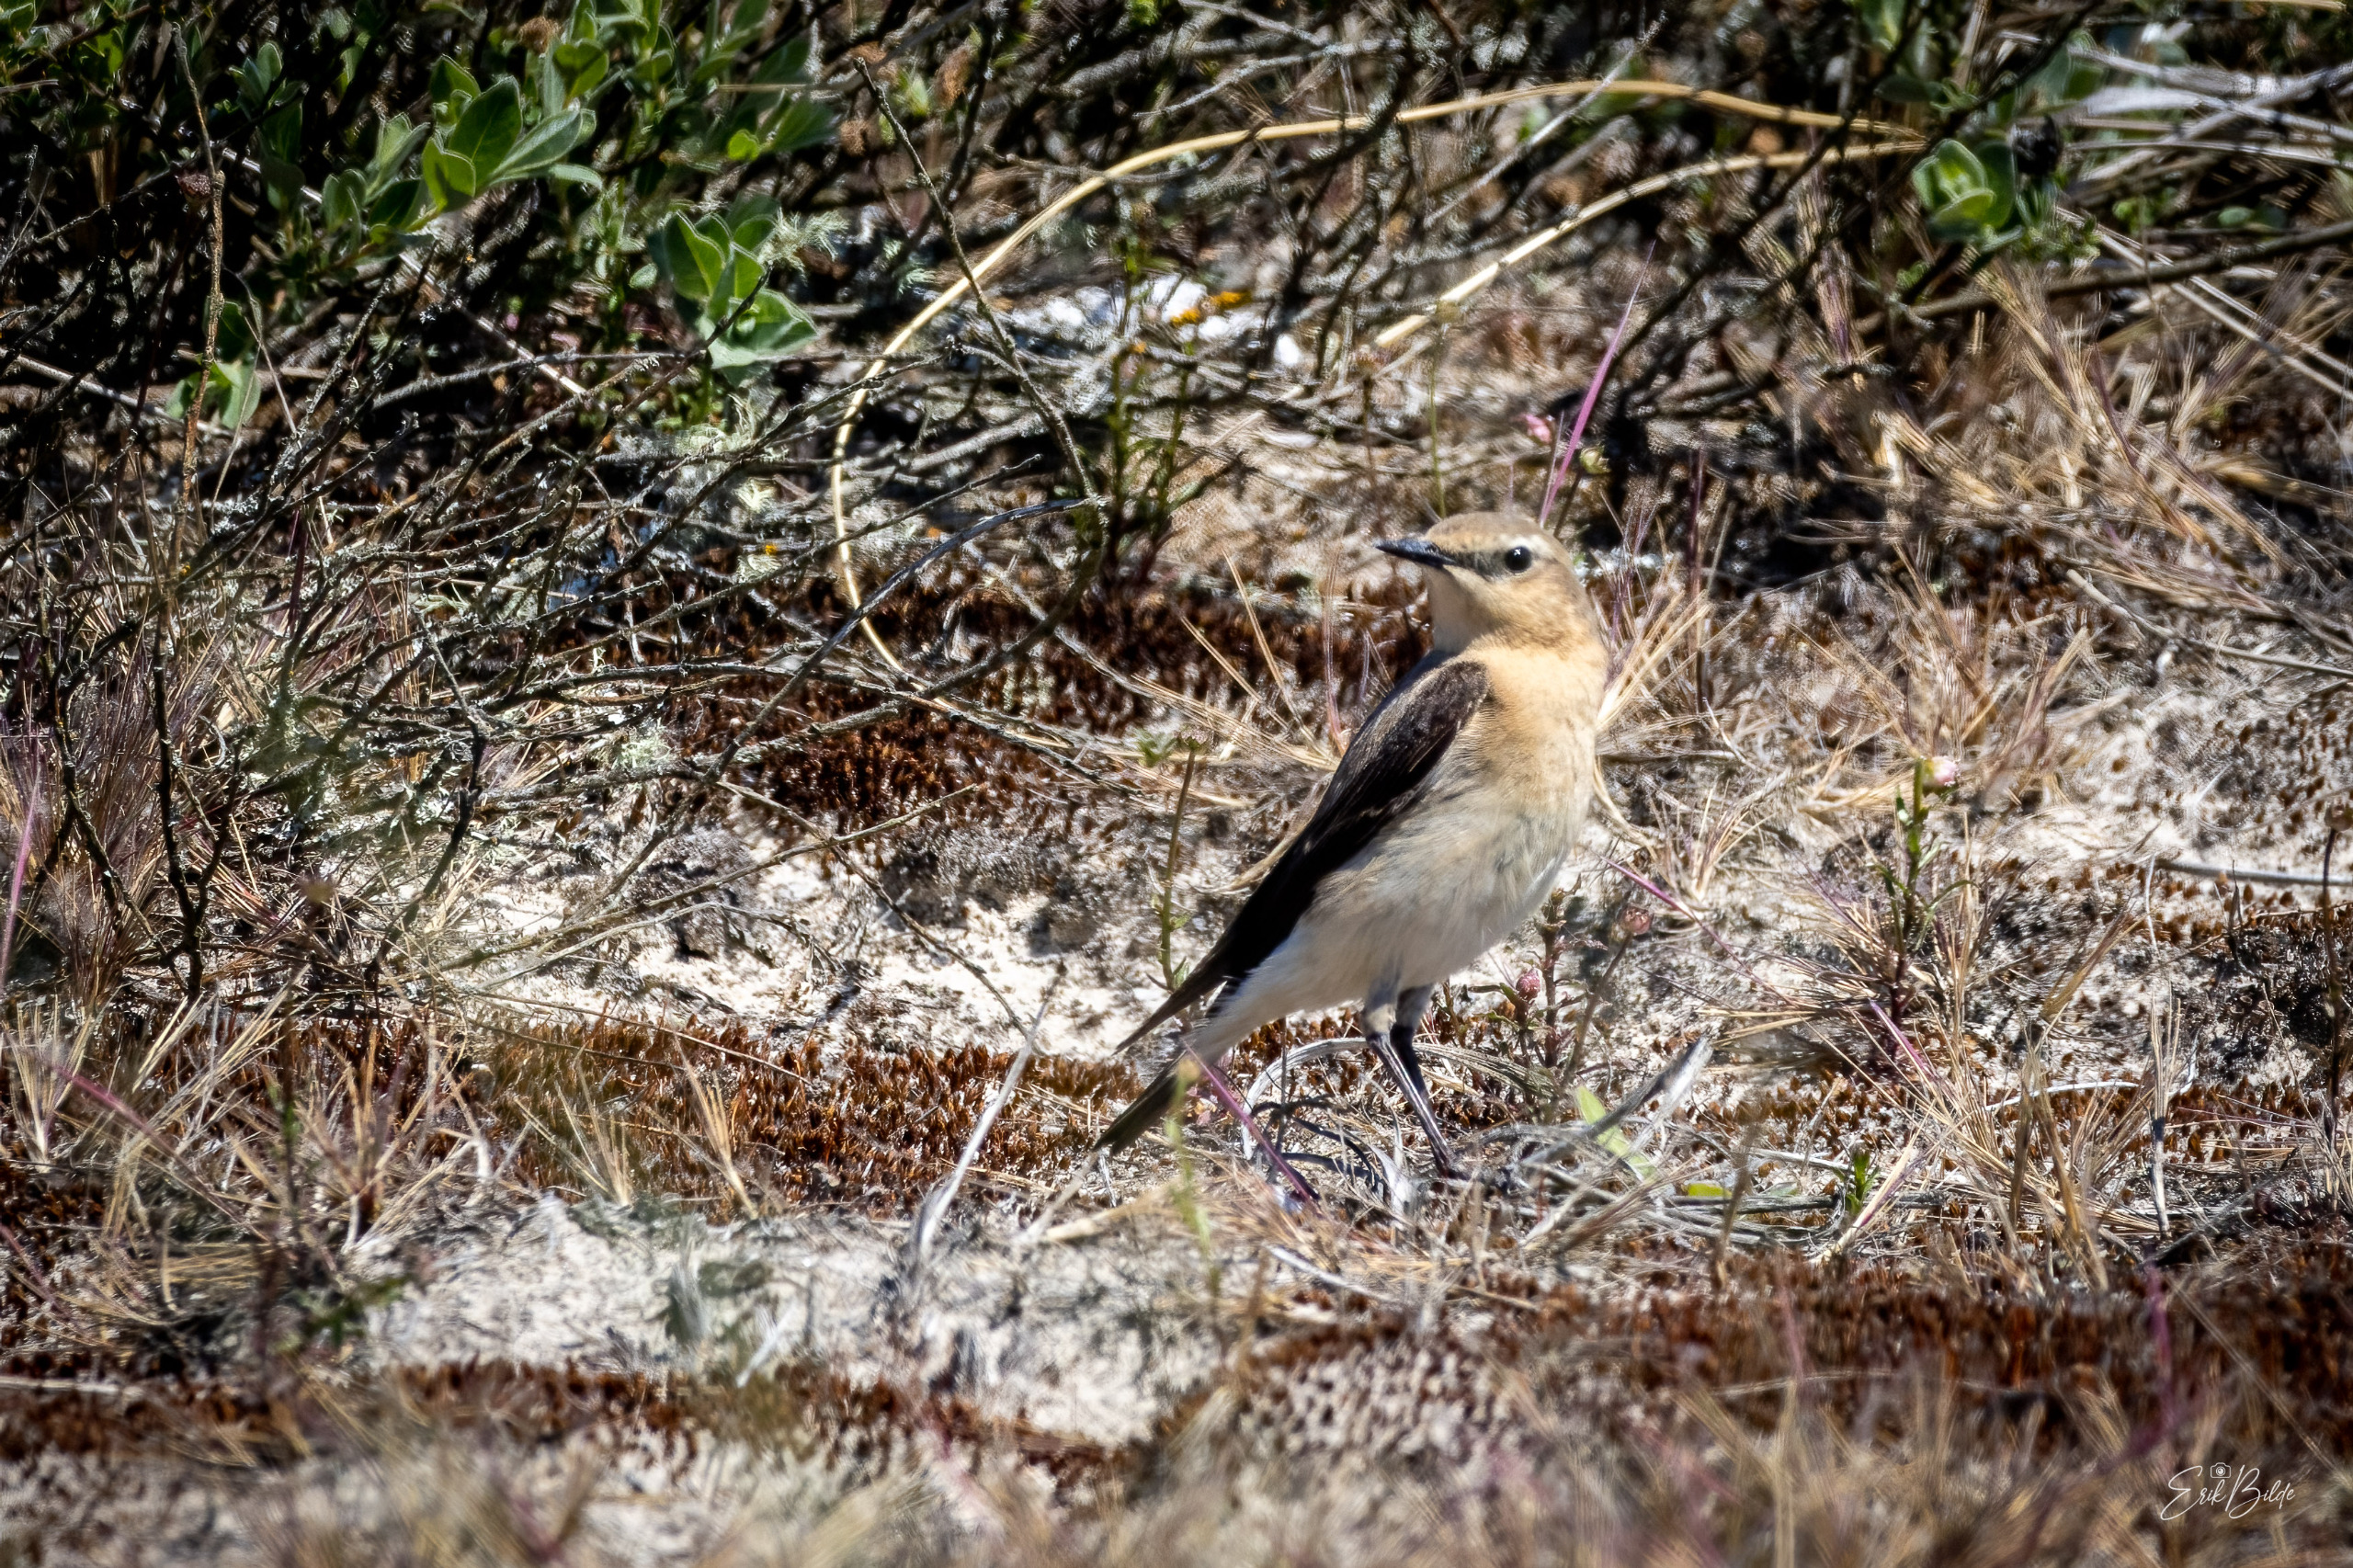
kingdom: Animalia
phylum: Chordata
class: Aves
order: Passeriformes
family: Muscicapidae
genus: Oenanthe
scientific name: Oenanthe oenanthe
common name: Stenpikker
